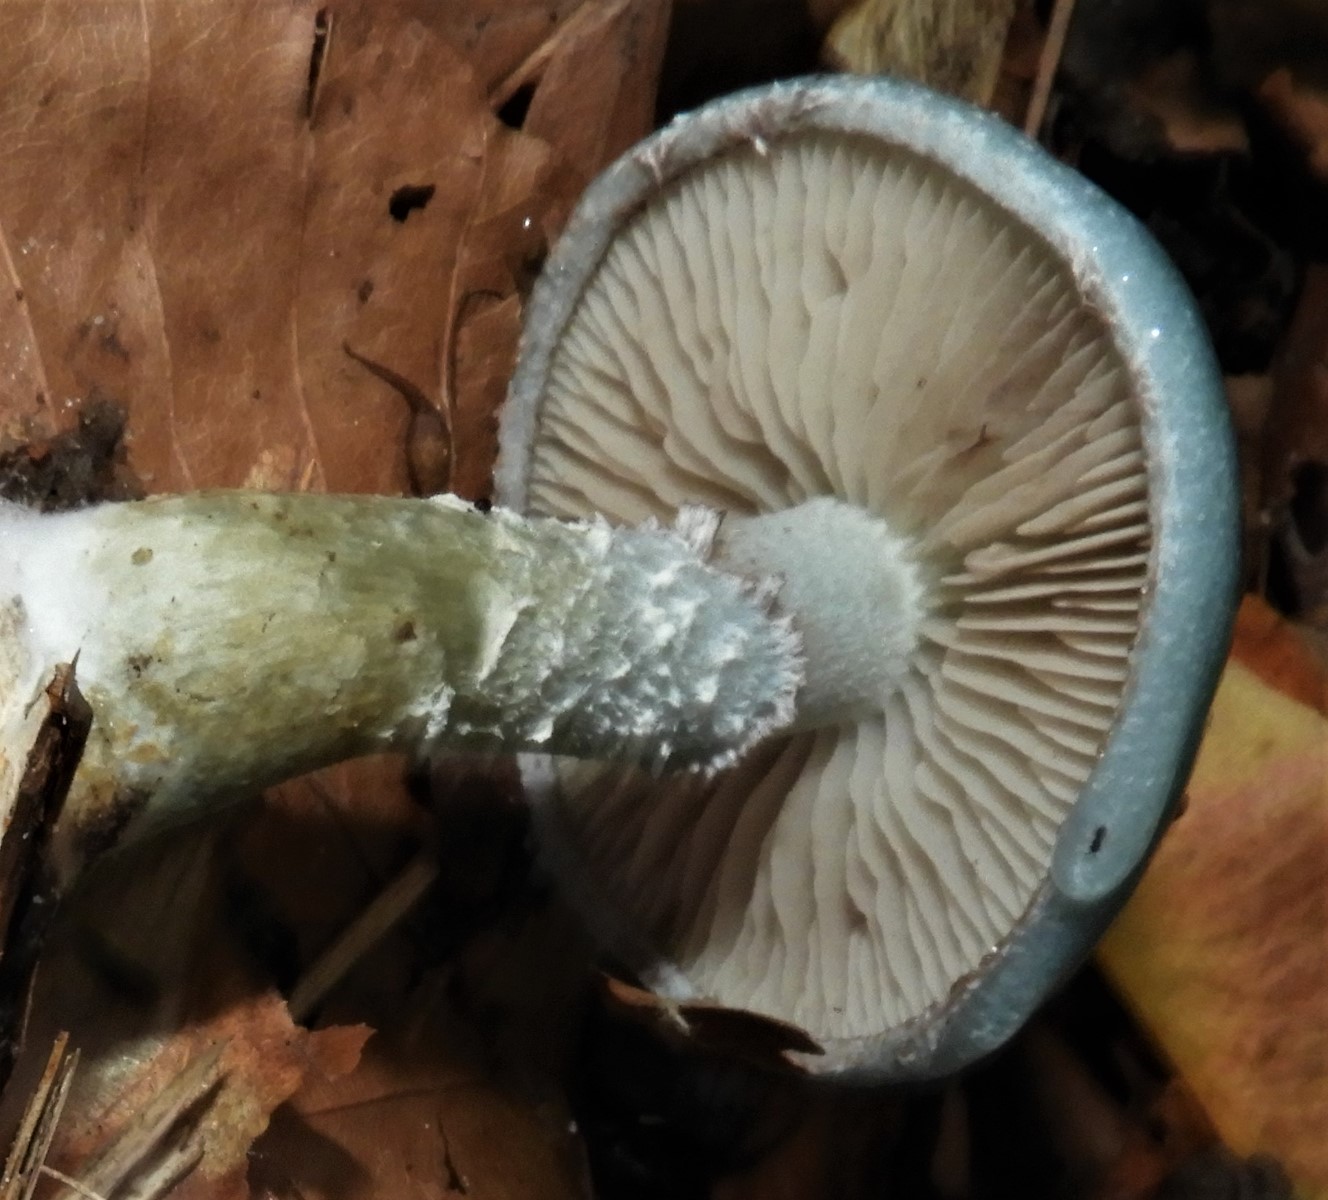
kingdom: Fungi
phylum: Basidiomycota
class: Agaricomycetes
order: Agaricales
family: Strophariaceae
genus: Stropharia
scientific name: Stropharia cyanea
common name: blågrøn bredblad
